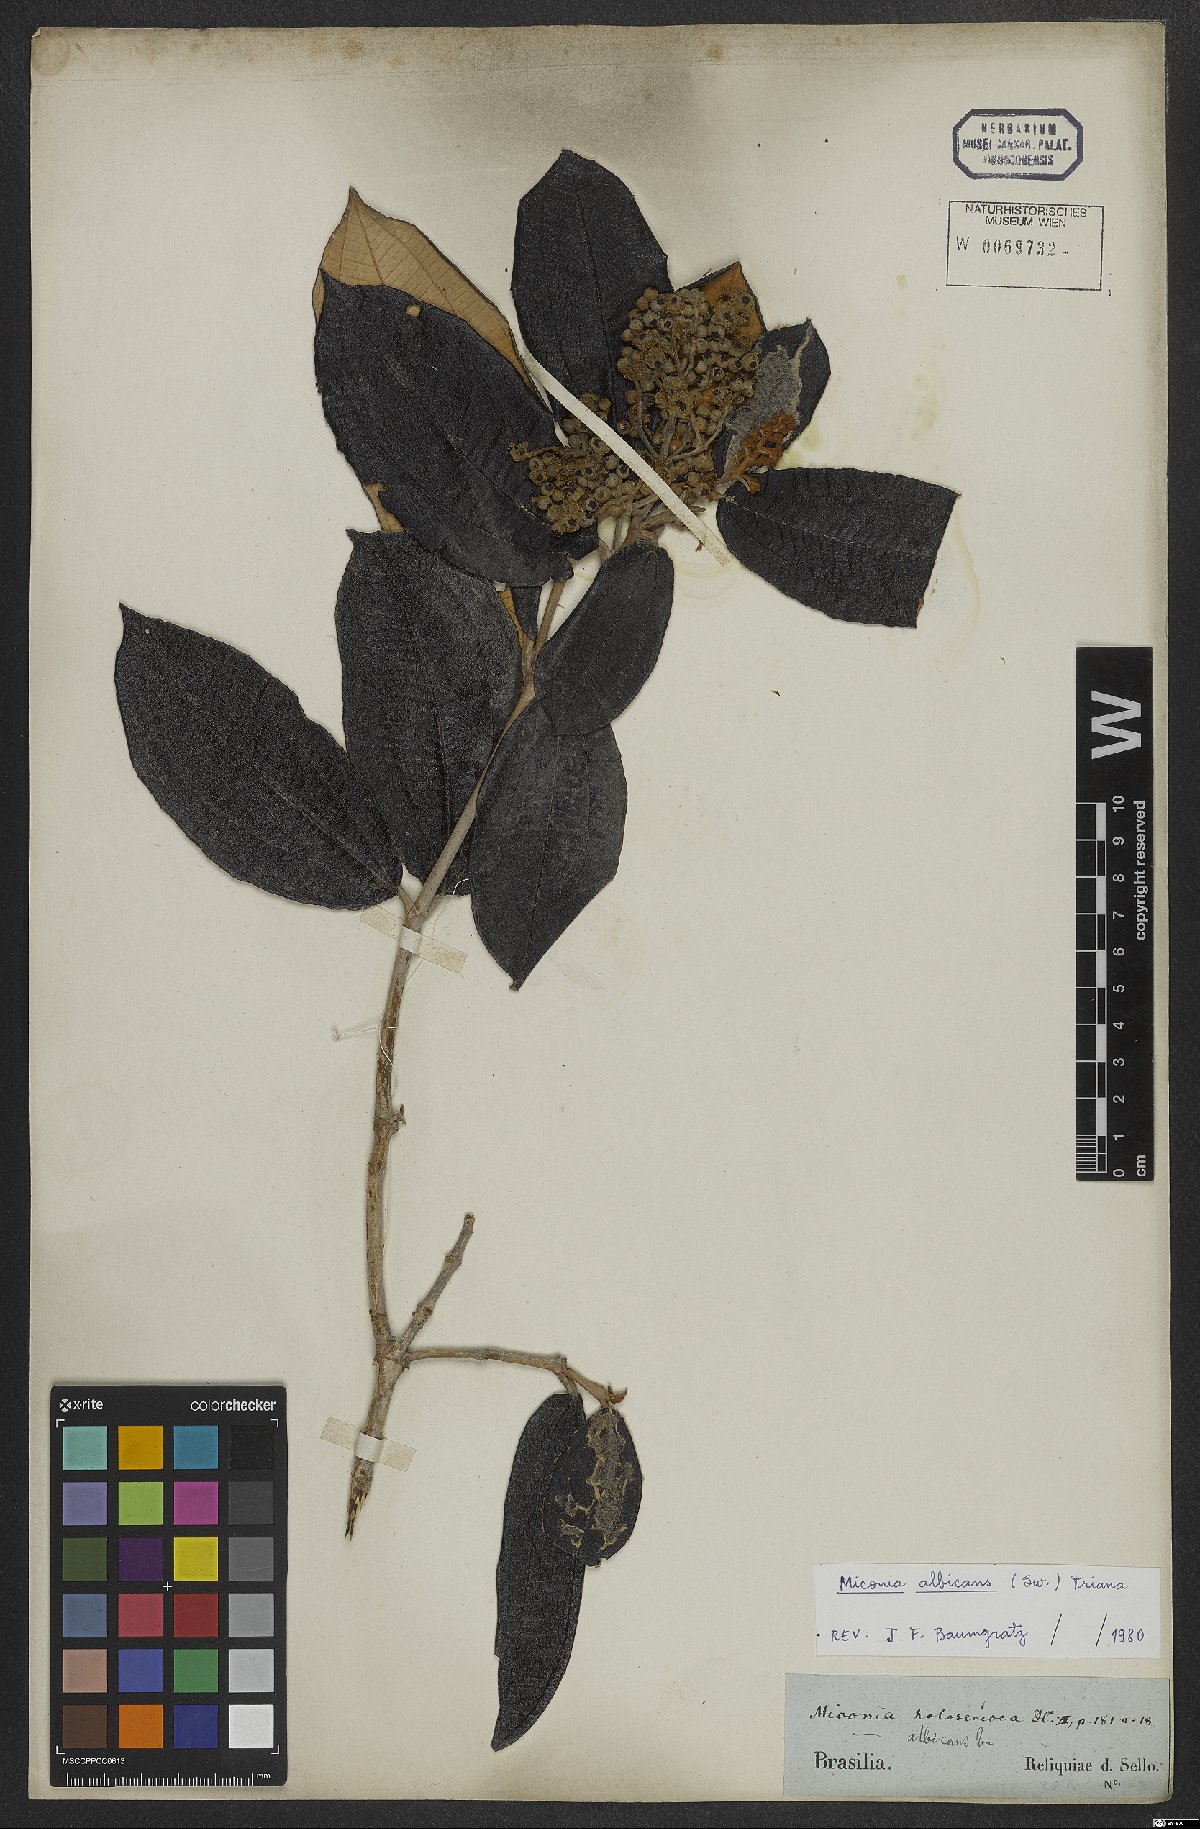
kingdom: Plantae
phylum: Tracheophyta
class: Magnoliopsida
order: Myrtales
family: Melastomataceae
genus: Miconia
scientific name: Miconia albicans
